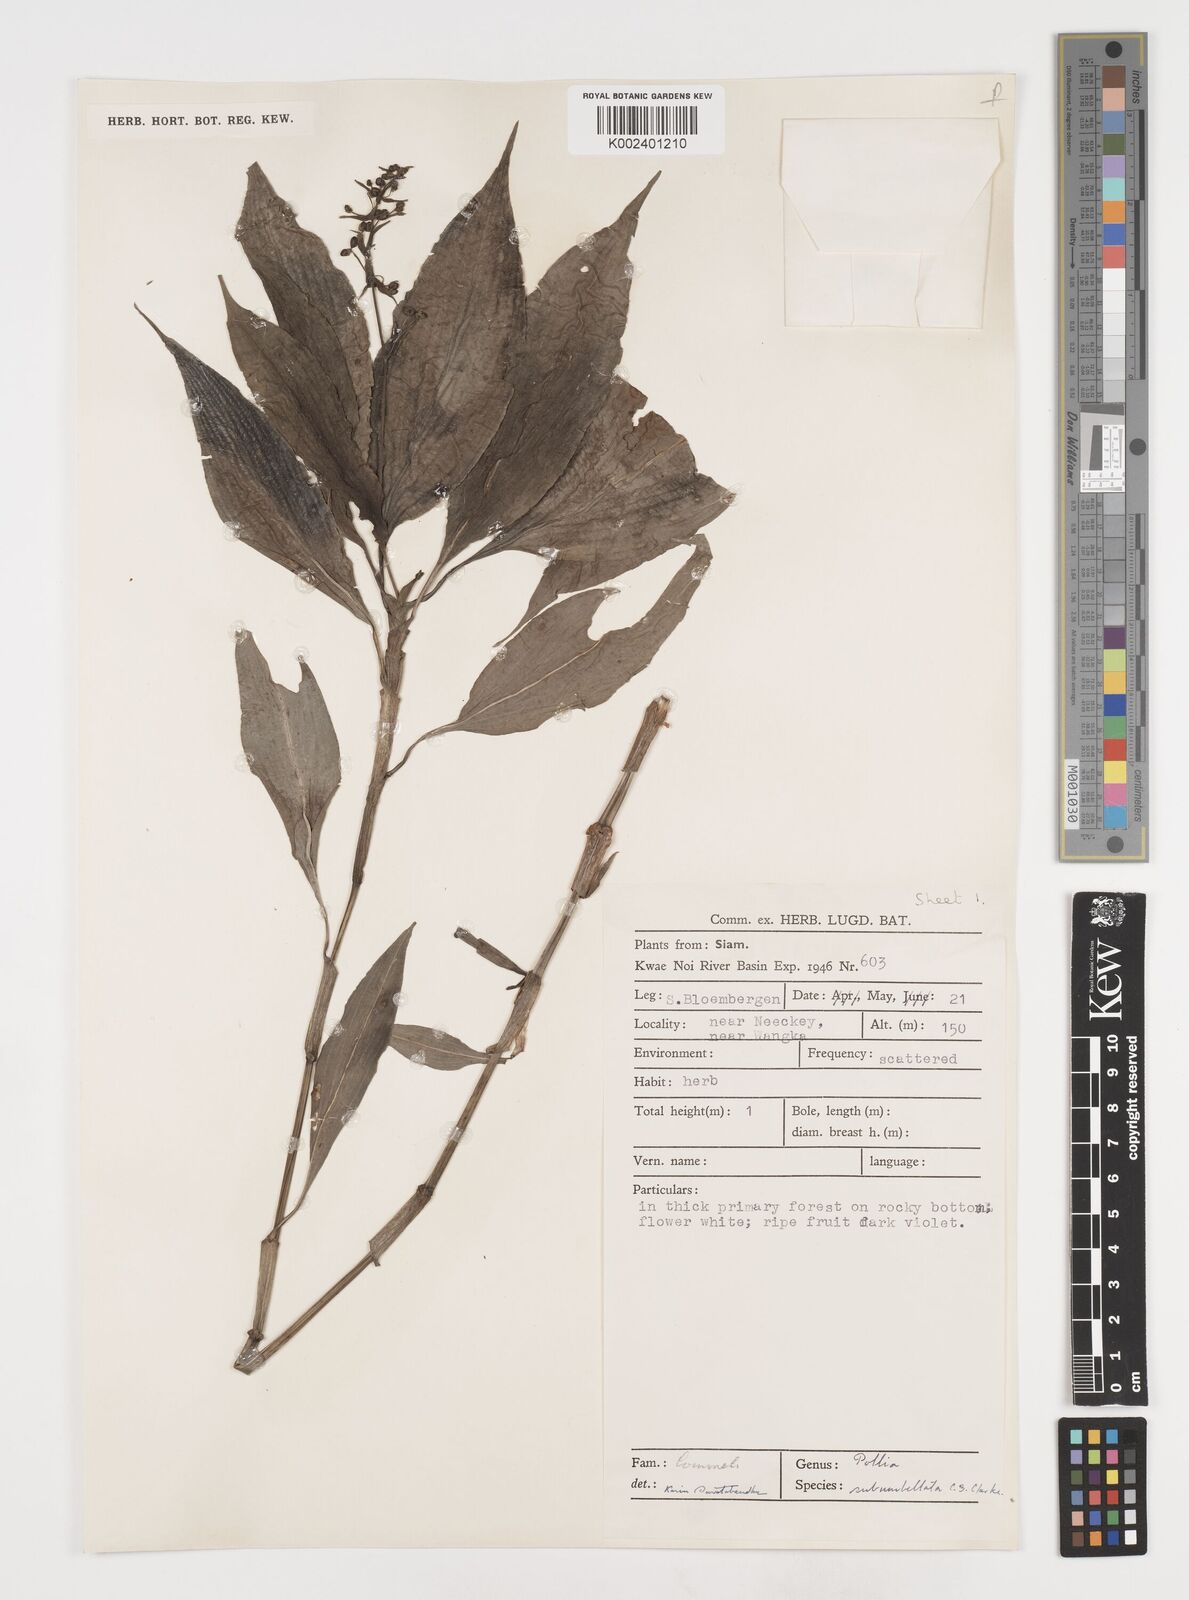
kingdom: Plantae
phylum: Tracheophyta
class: Liliopsida
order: Commelinales
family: Commelinaceae
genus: Pollia
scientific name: Pollia secundiflora
